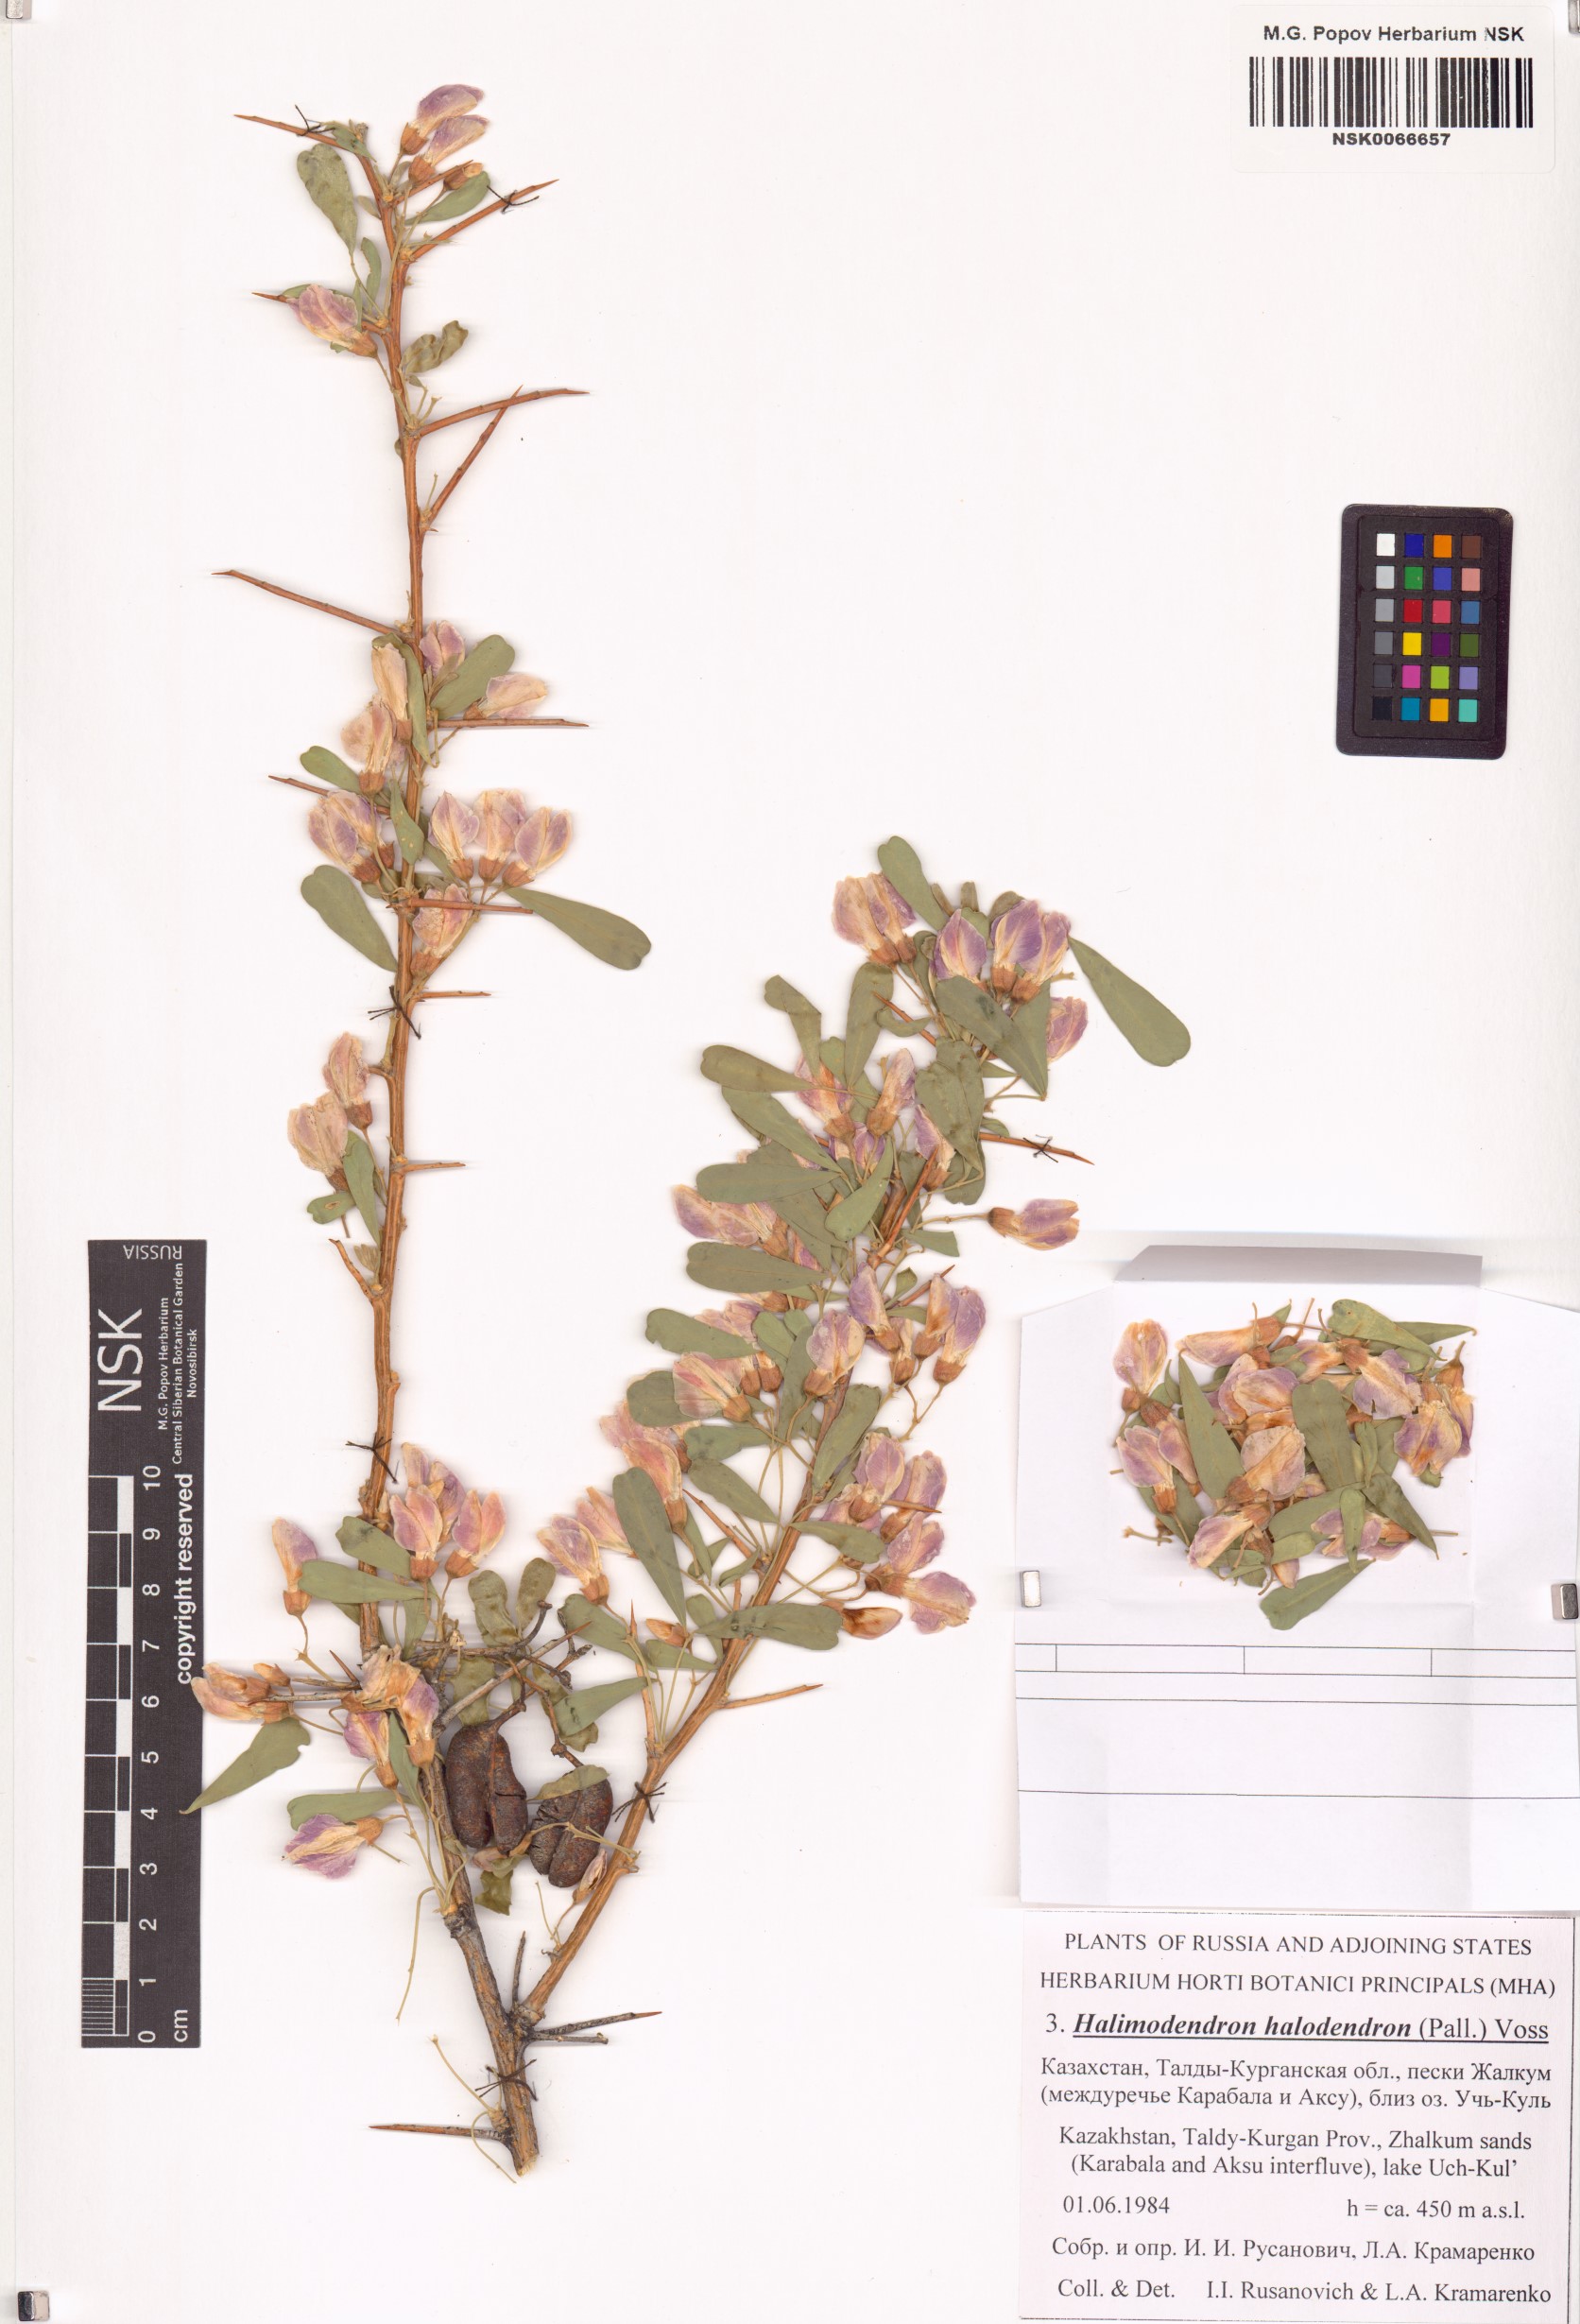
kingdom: Plantae
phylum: Tracheophyta
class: Magnoliopsida
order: Fabales
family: Fabaceae
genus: Caragana
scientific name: Caragana halodendron
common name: Siberian salt-tree
